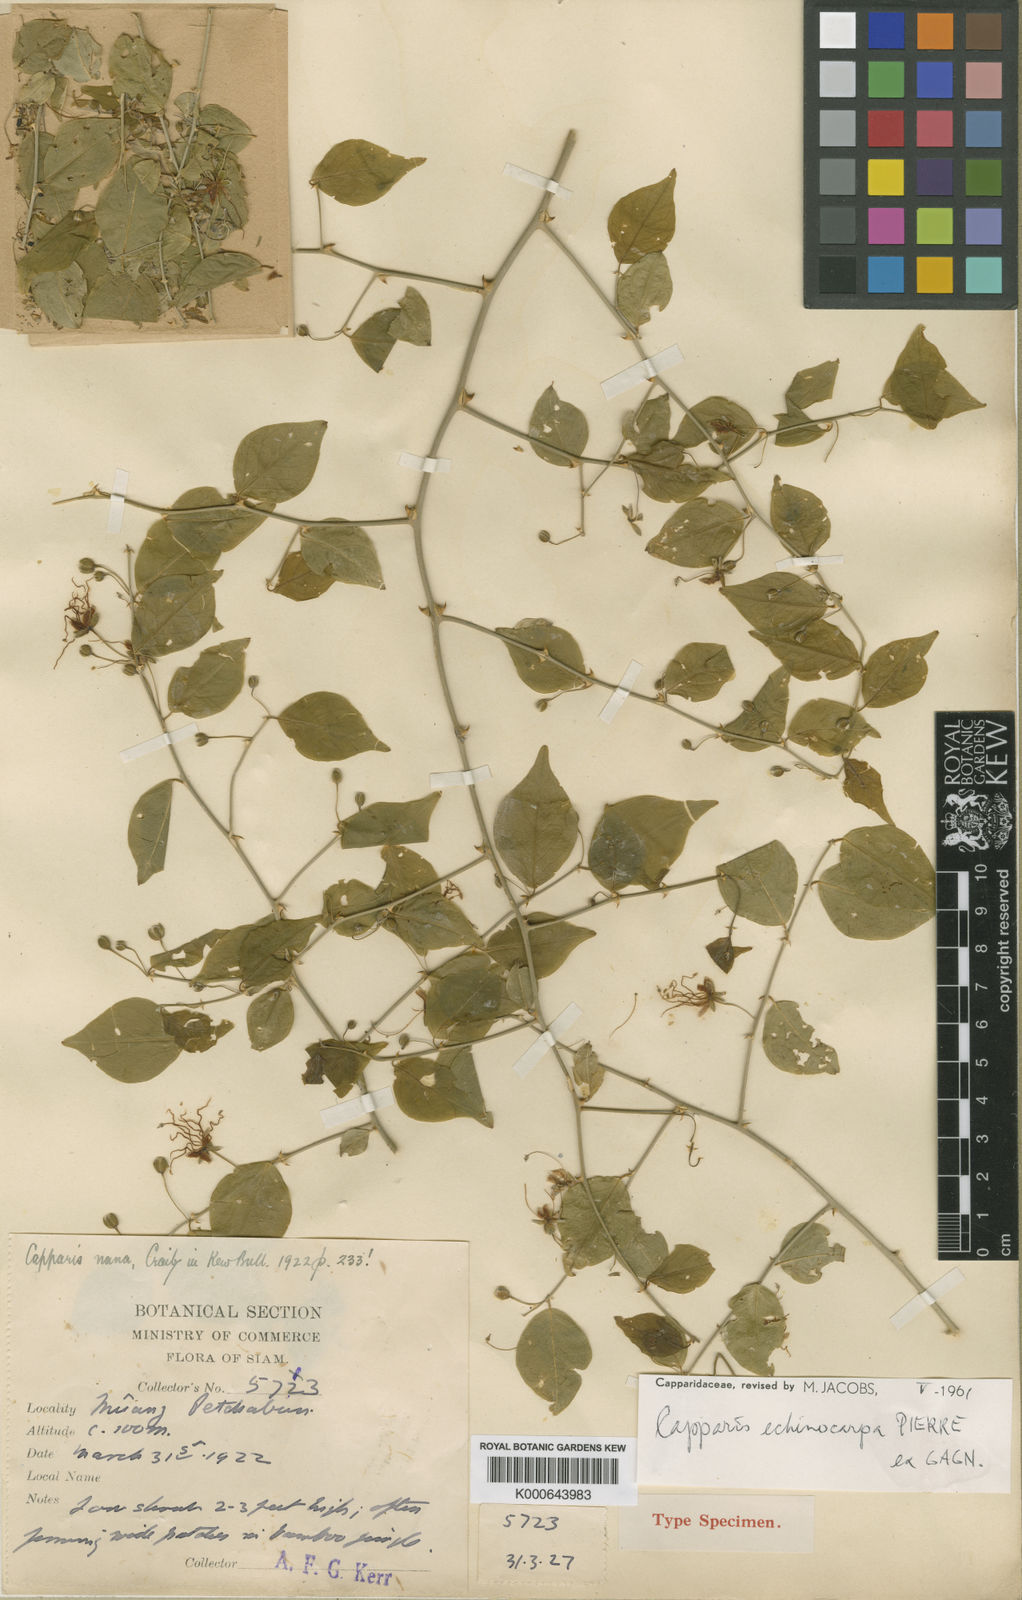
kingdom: Plantae
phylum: Tracheophyta
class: Magnoliopsida
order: Brassicales
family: Capparaceae
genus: Capparis
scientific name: Capparis echinocarpa
